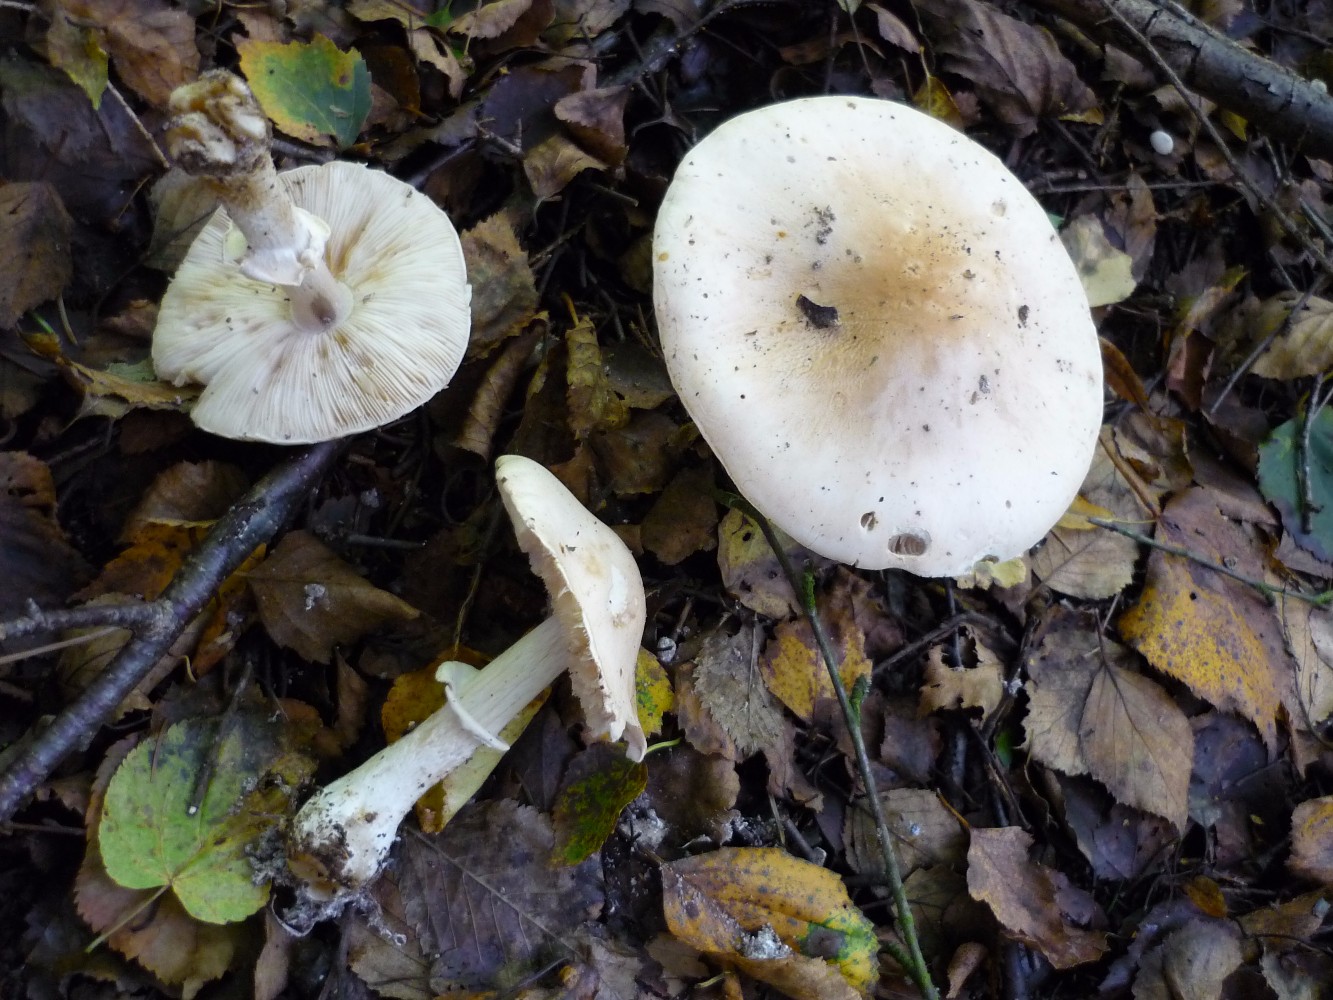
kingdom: Fungi
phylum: Basidiomycota
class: Agaricomycetes
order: Agaricales
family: Amanitaceae
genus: Limacellopsis
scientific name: Limacellopsis guttata
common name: tåre-snekkehat
